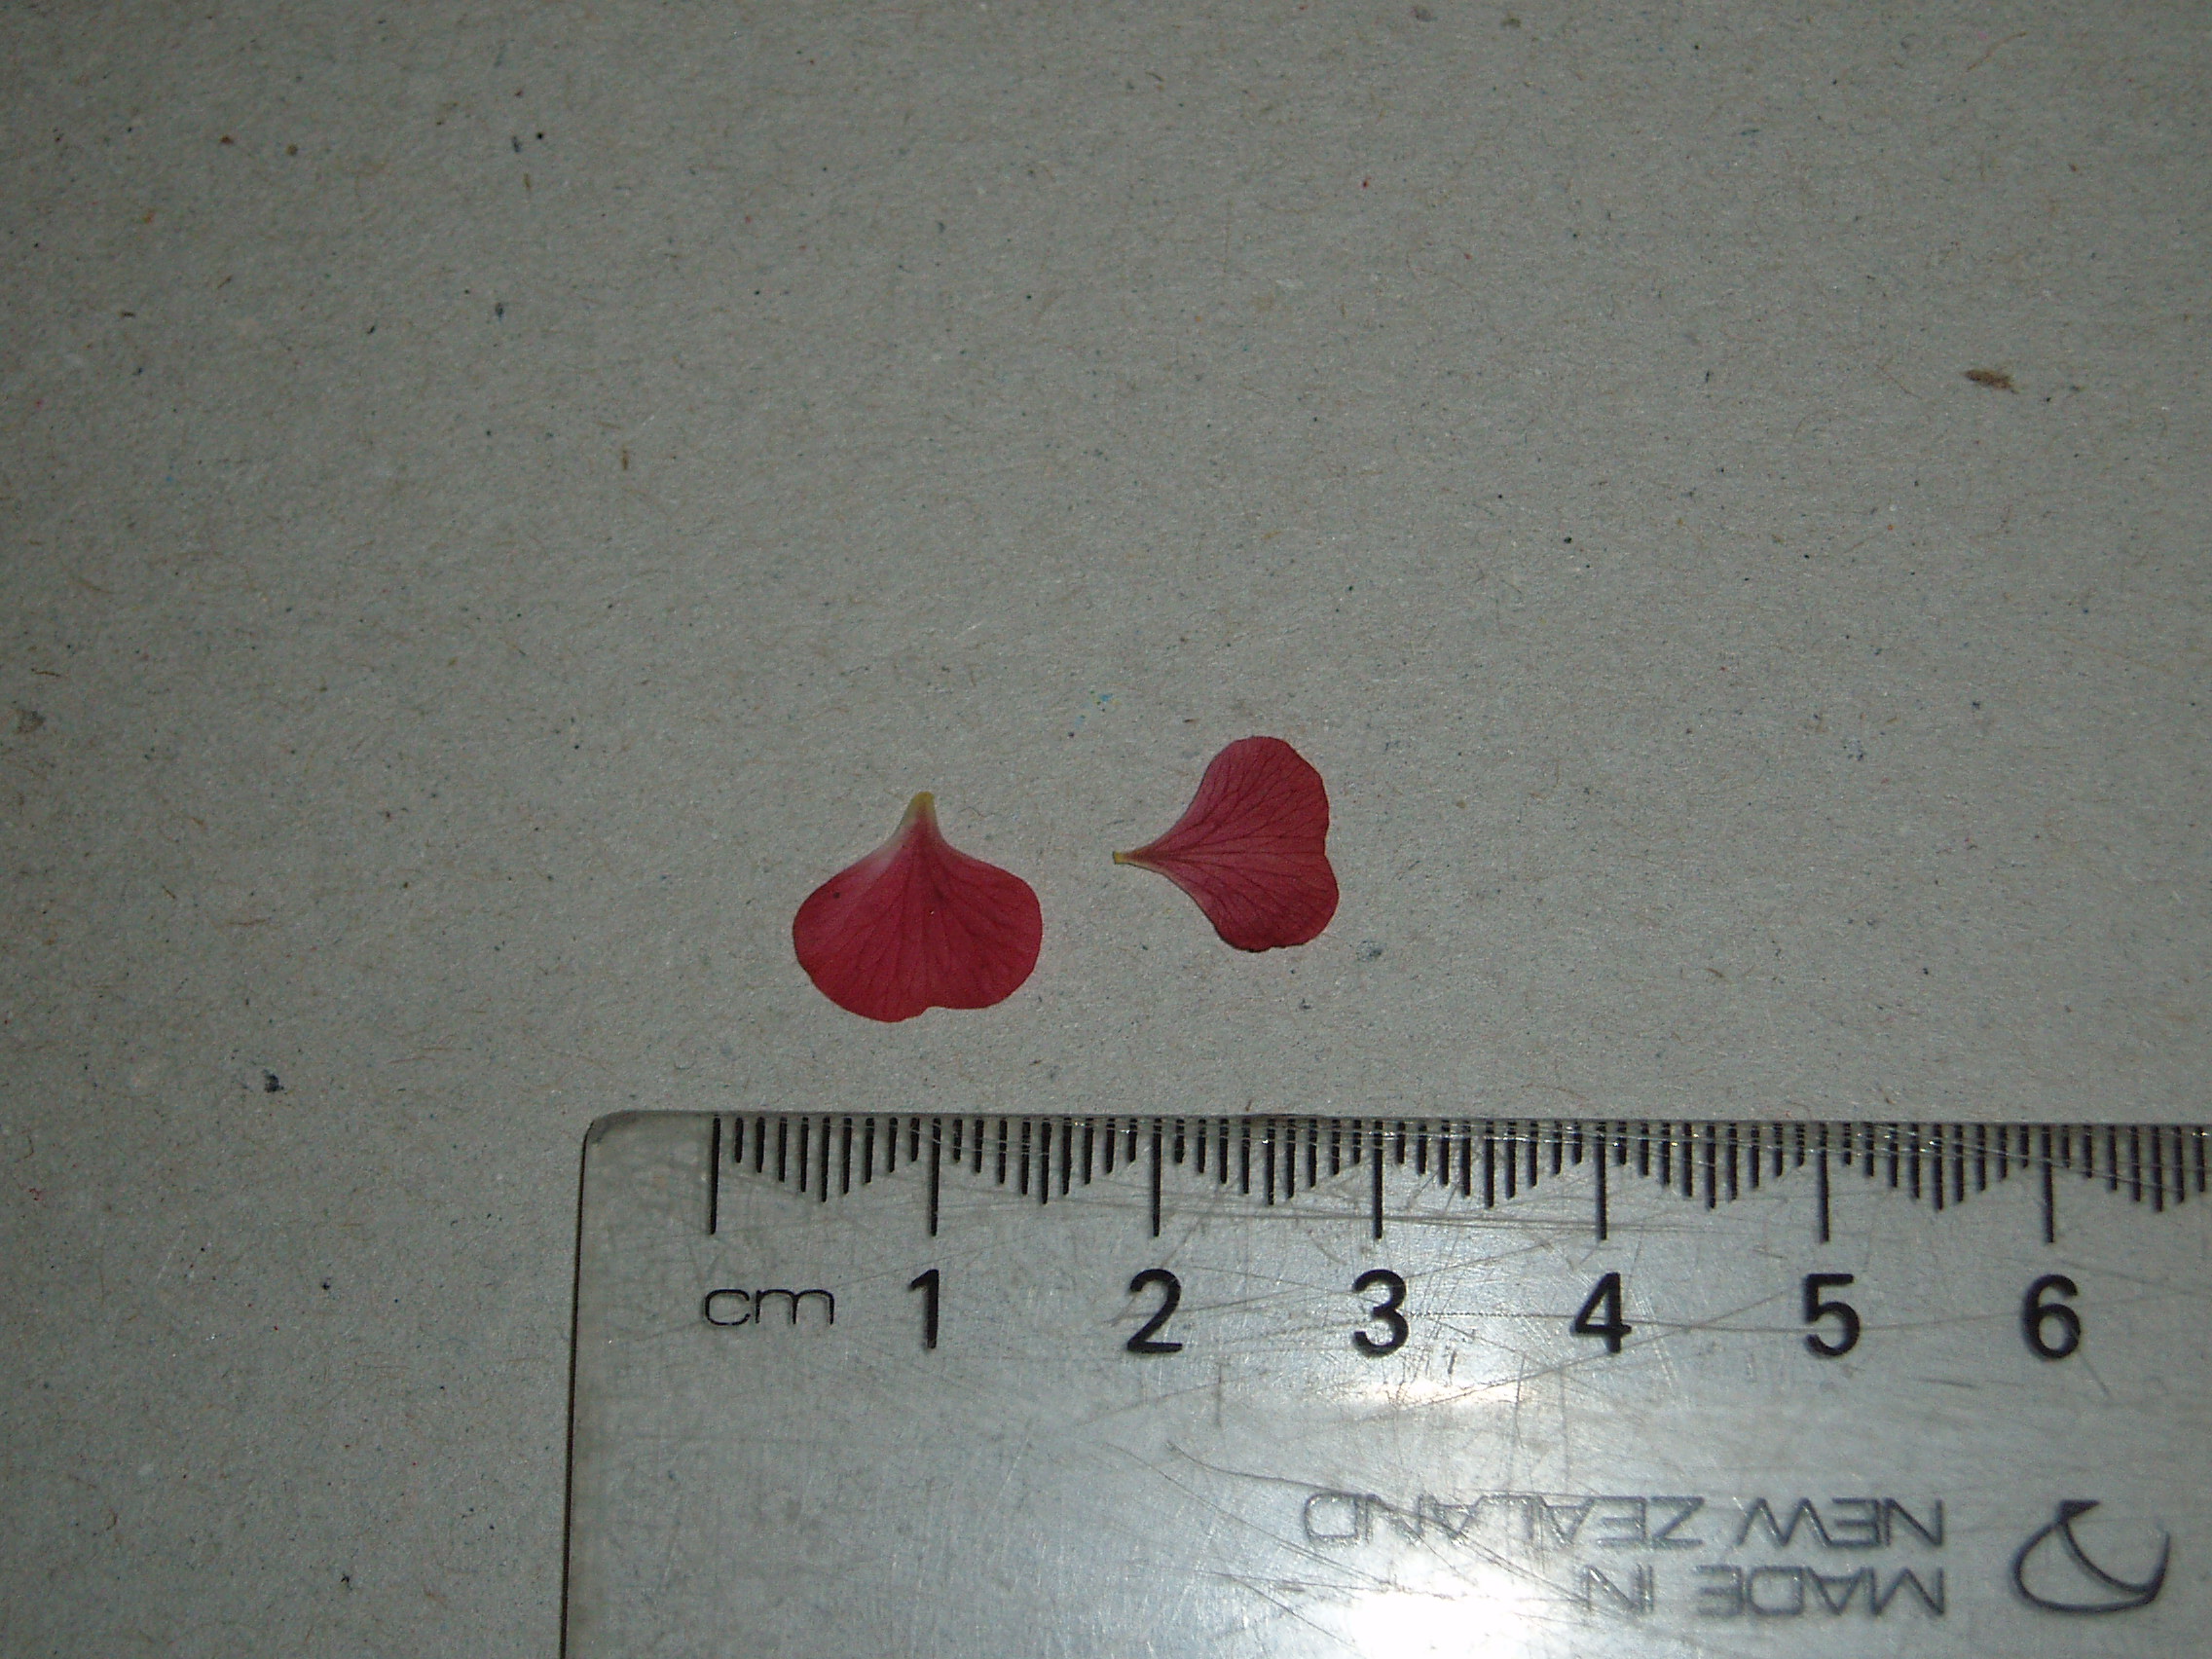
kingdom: Plantae
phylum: Tracheophyta
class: Magnoliopsida
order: Rosales
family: Rosaceae
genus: Geum
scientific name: Geum rivale
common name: Water avens
